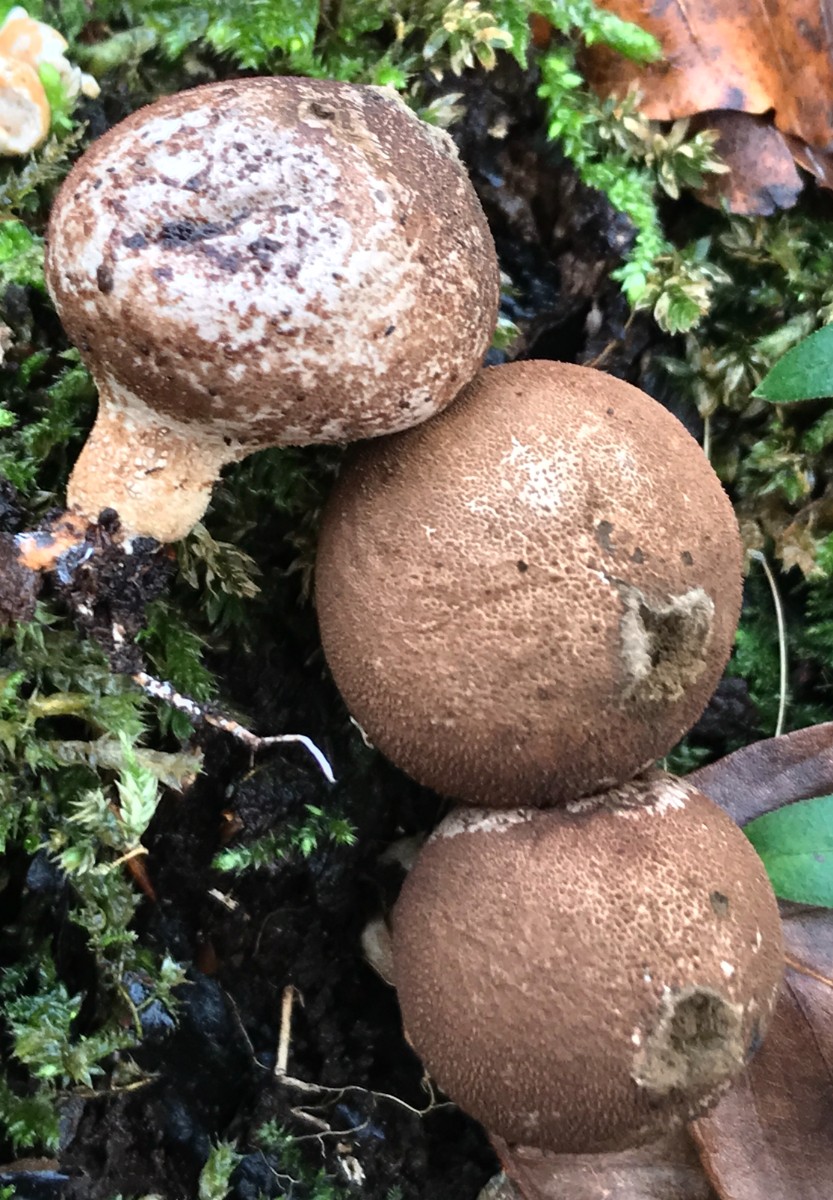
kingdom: Fungi
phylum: Basidiomycota
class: Agaricomycetes
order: Agaricales
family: Lycoperdaceae
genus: Apioperdon
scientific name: Apioperdon pyriforme
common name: pære-støvbold
